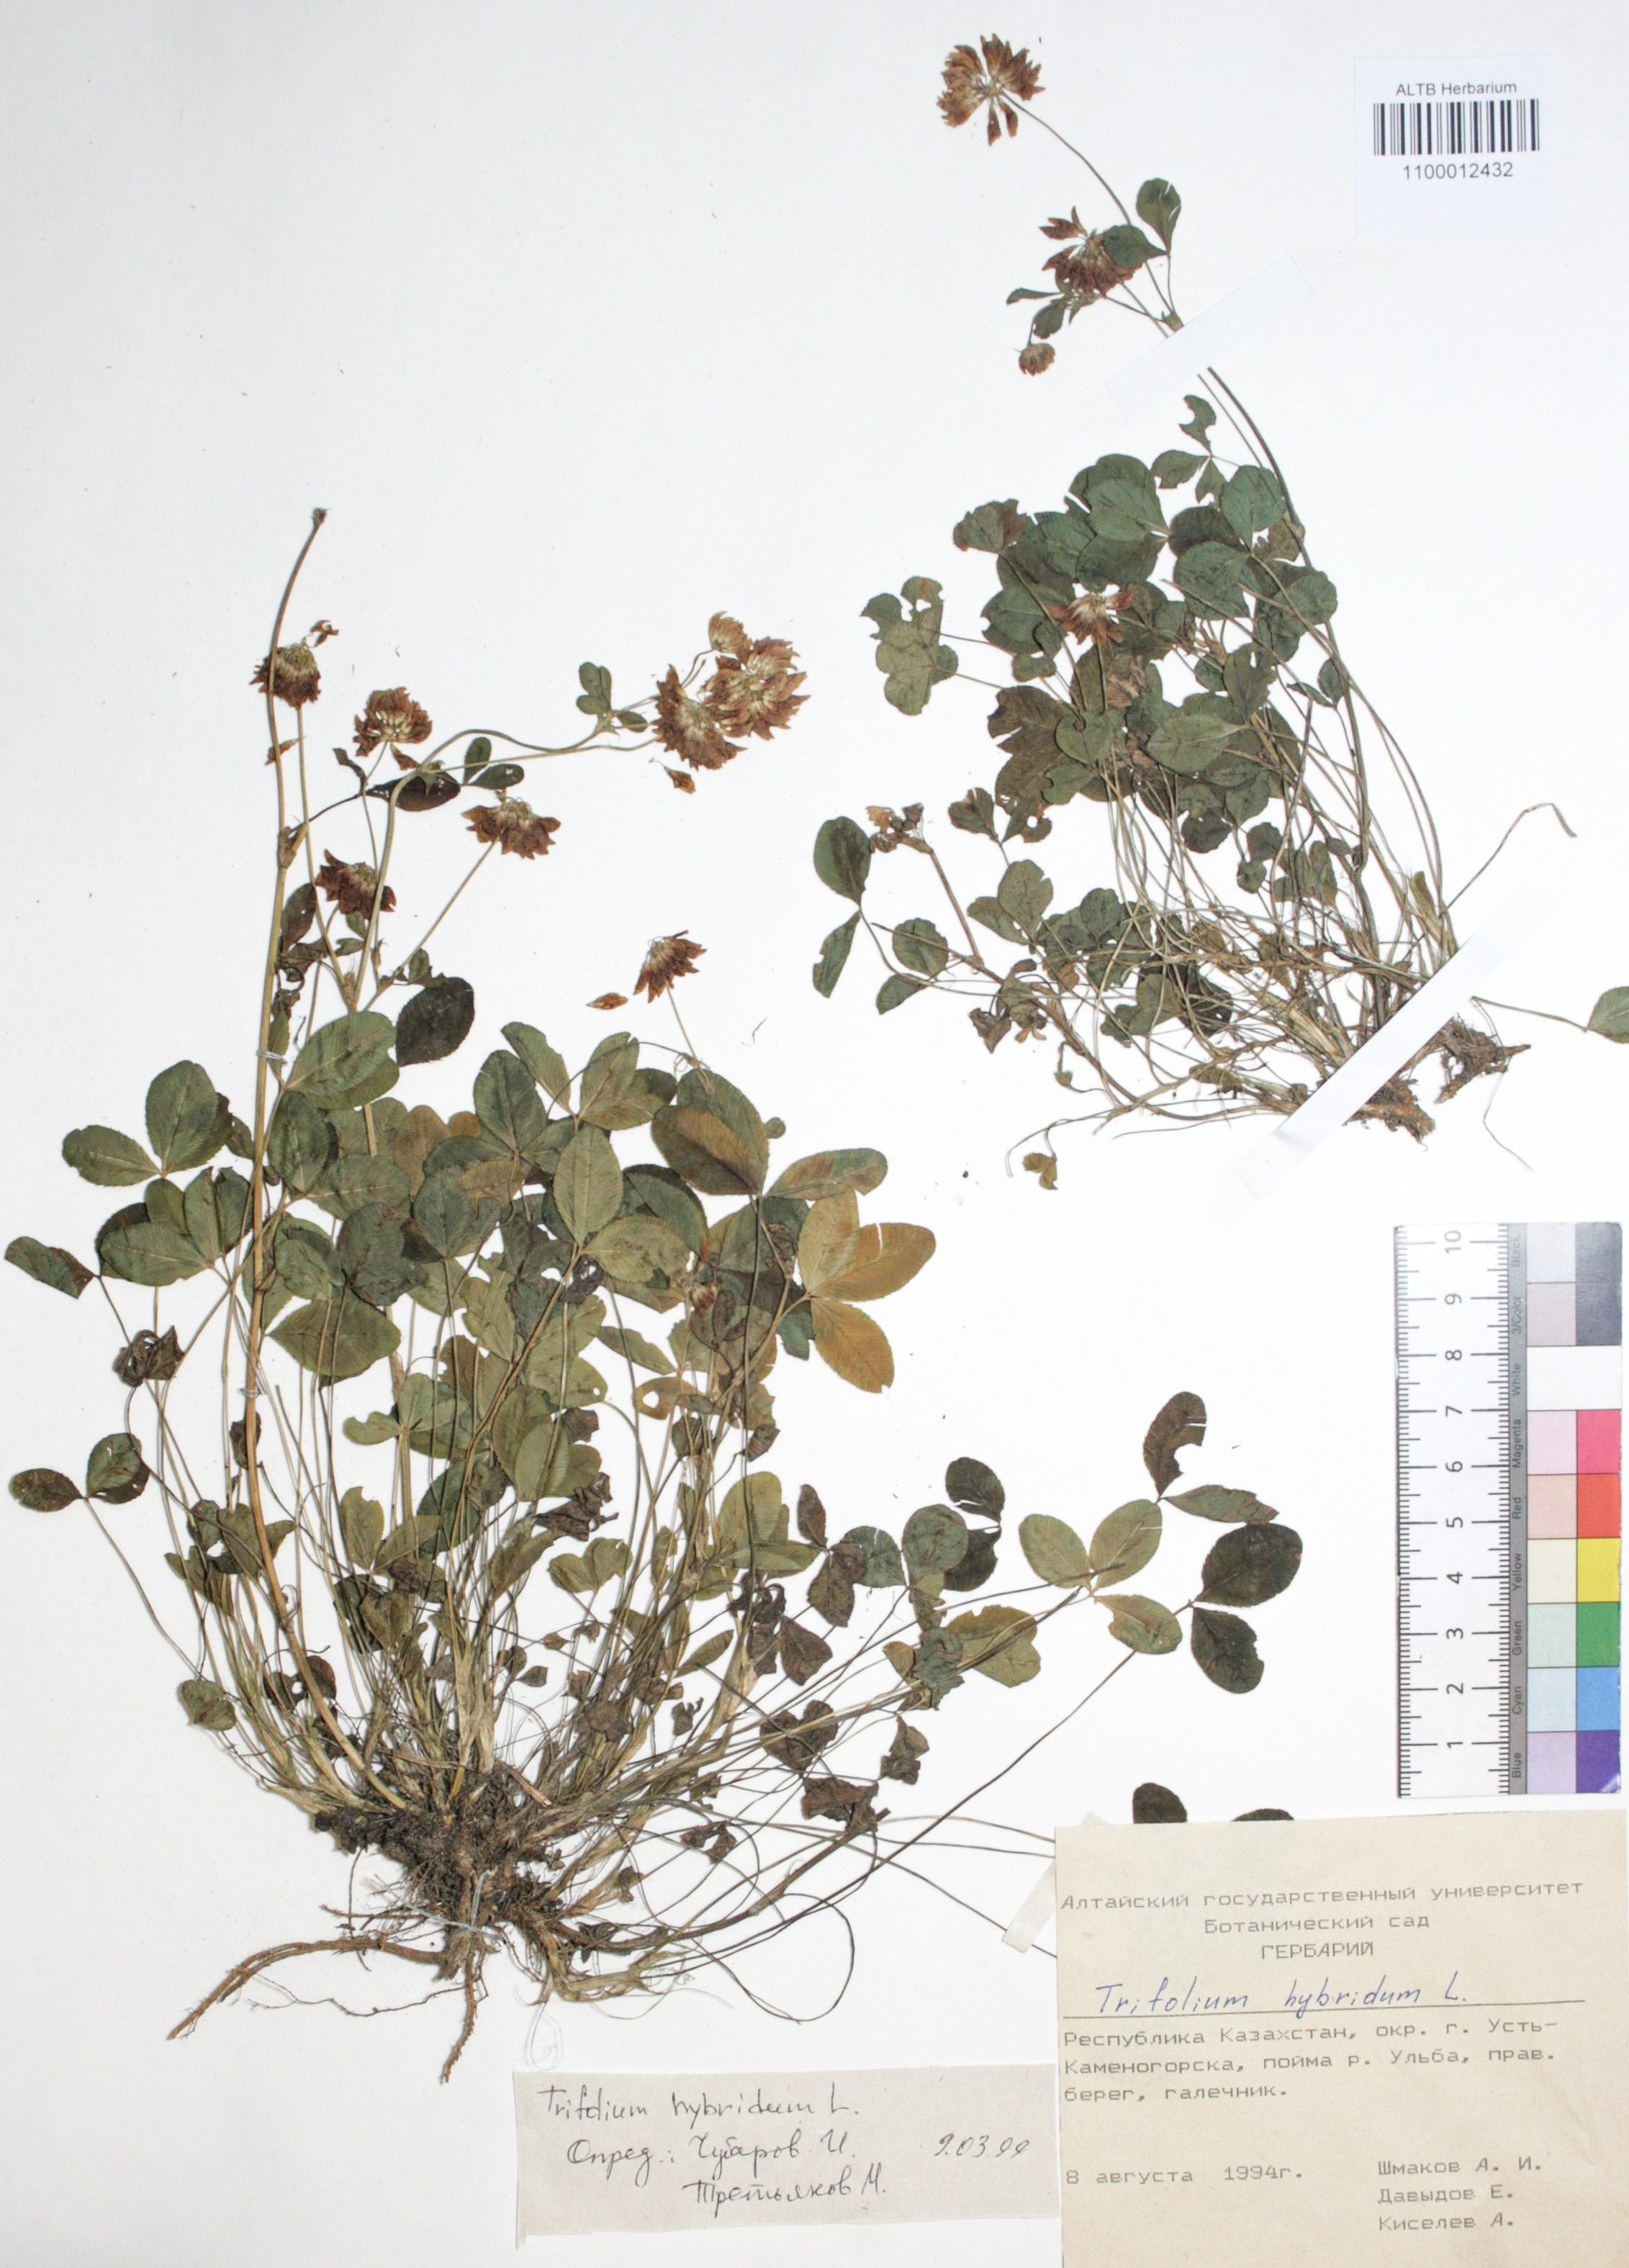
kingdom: Plantae
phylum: Tracheophyta
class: Magnoliopsida
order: Fabales
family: Fabaceae
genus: Trifolium
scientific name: Trifolium hybridum
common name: Alsike clover
